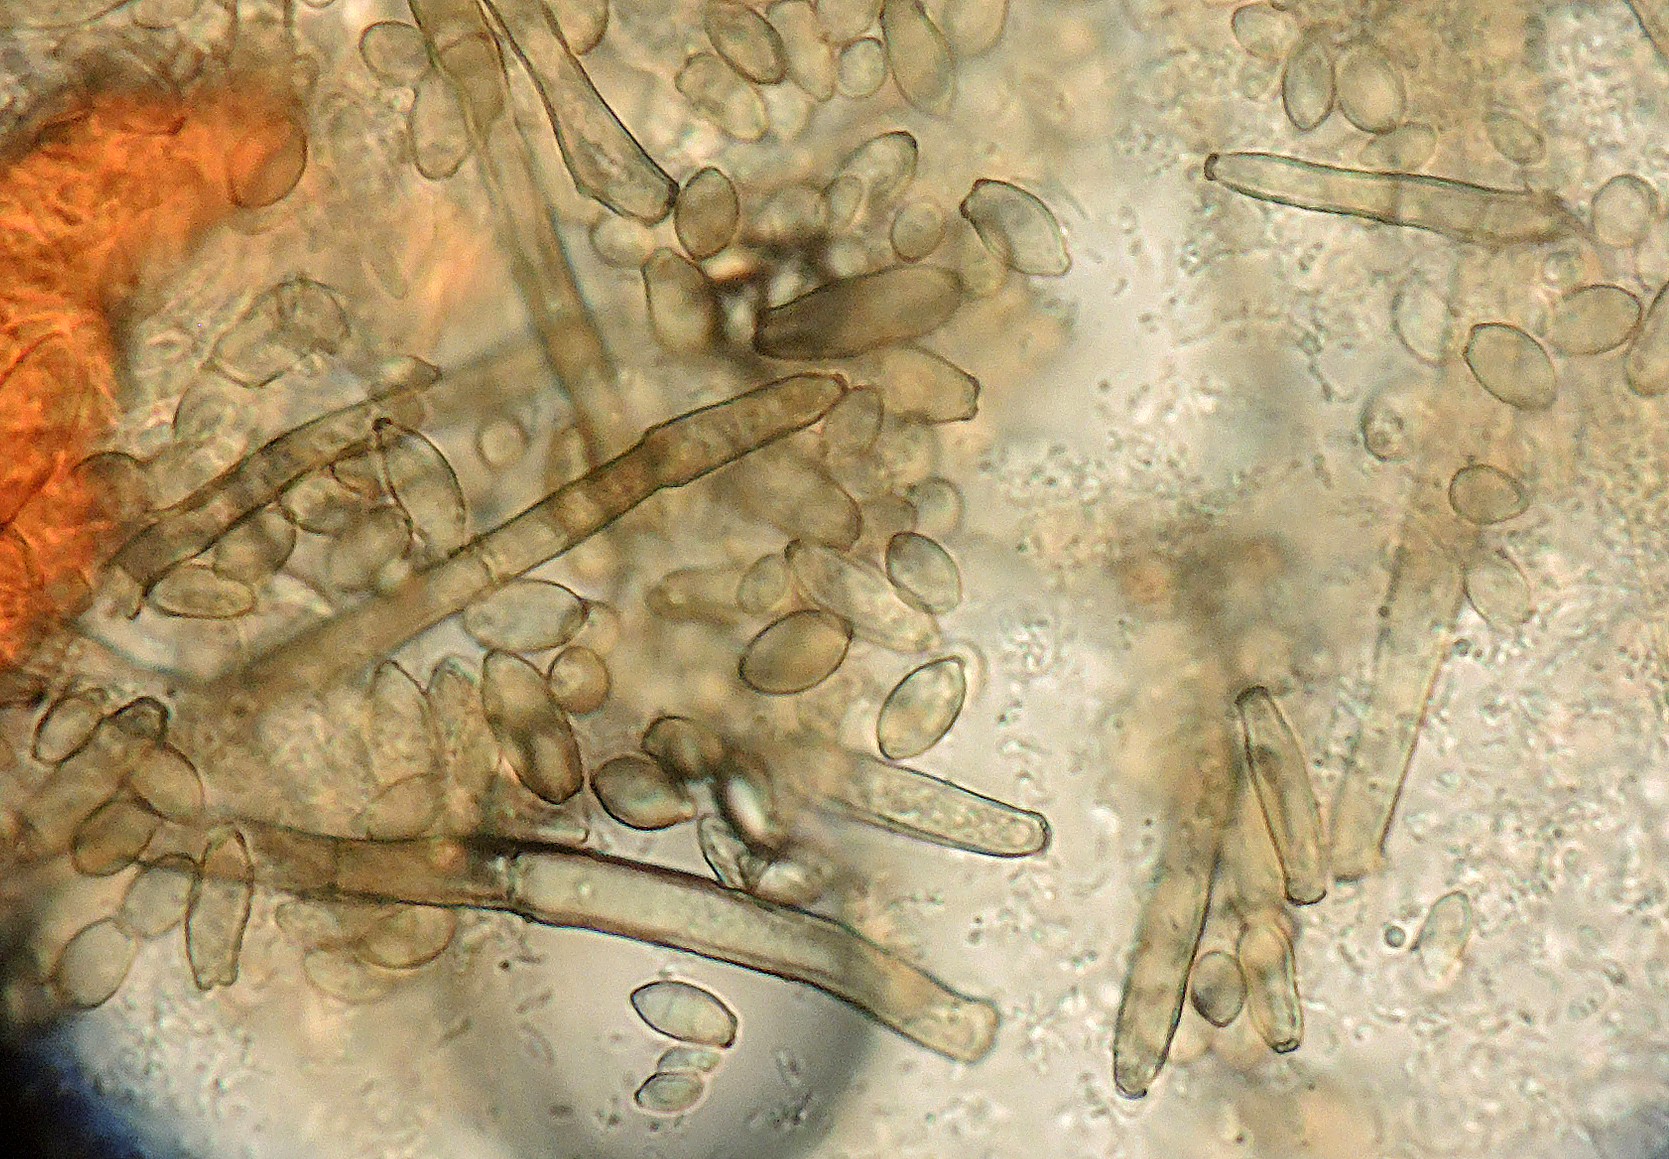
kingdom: Fungi
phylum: Ascomycota
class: Dothideomycetes
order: Capnodiales
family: Cladosporiaceae
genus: Cladosporium
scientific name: Cladosporium exobasidii
